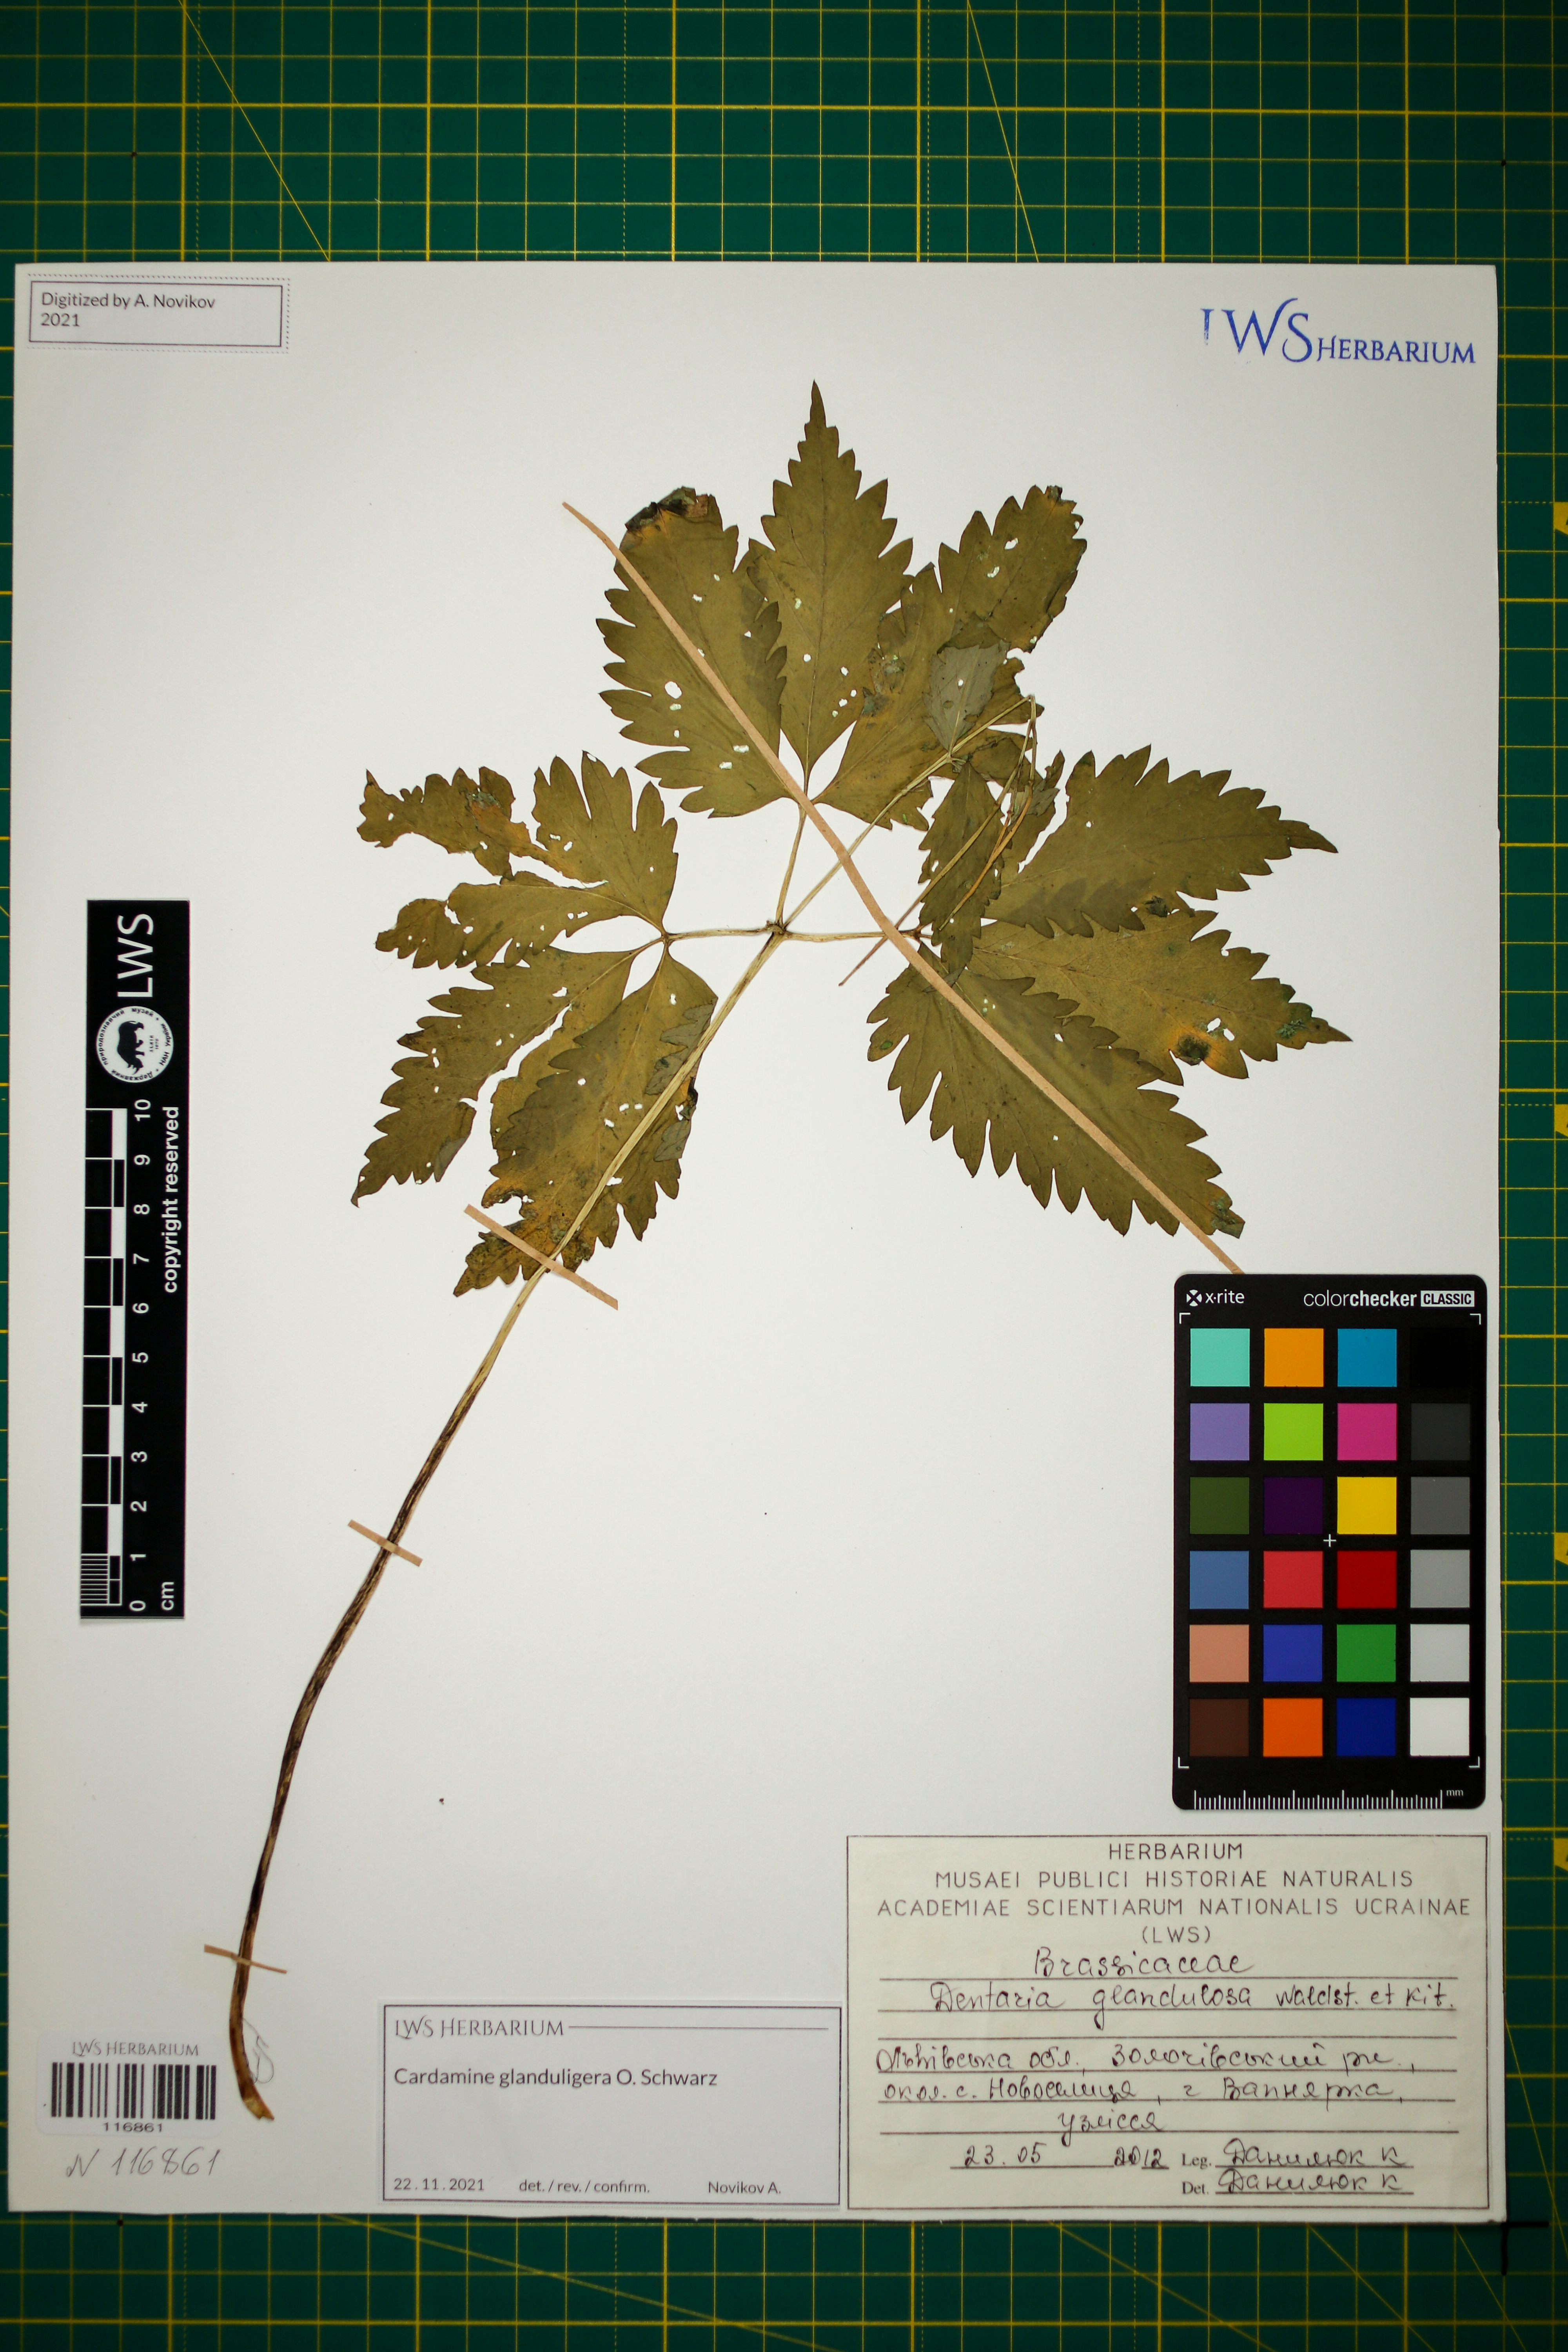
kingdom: Plantae
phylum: Tracheophyta
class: Magnoliopsida
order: Brassicales
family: Brassicaceae
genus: Cardamine
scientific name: Cardamine glanduligera
